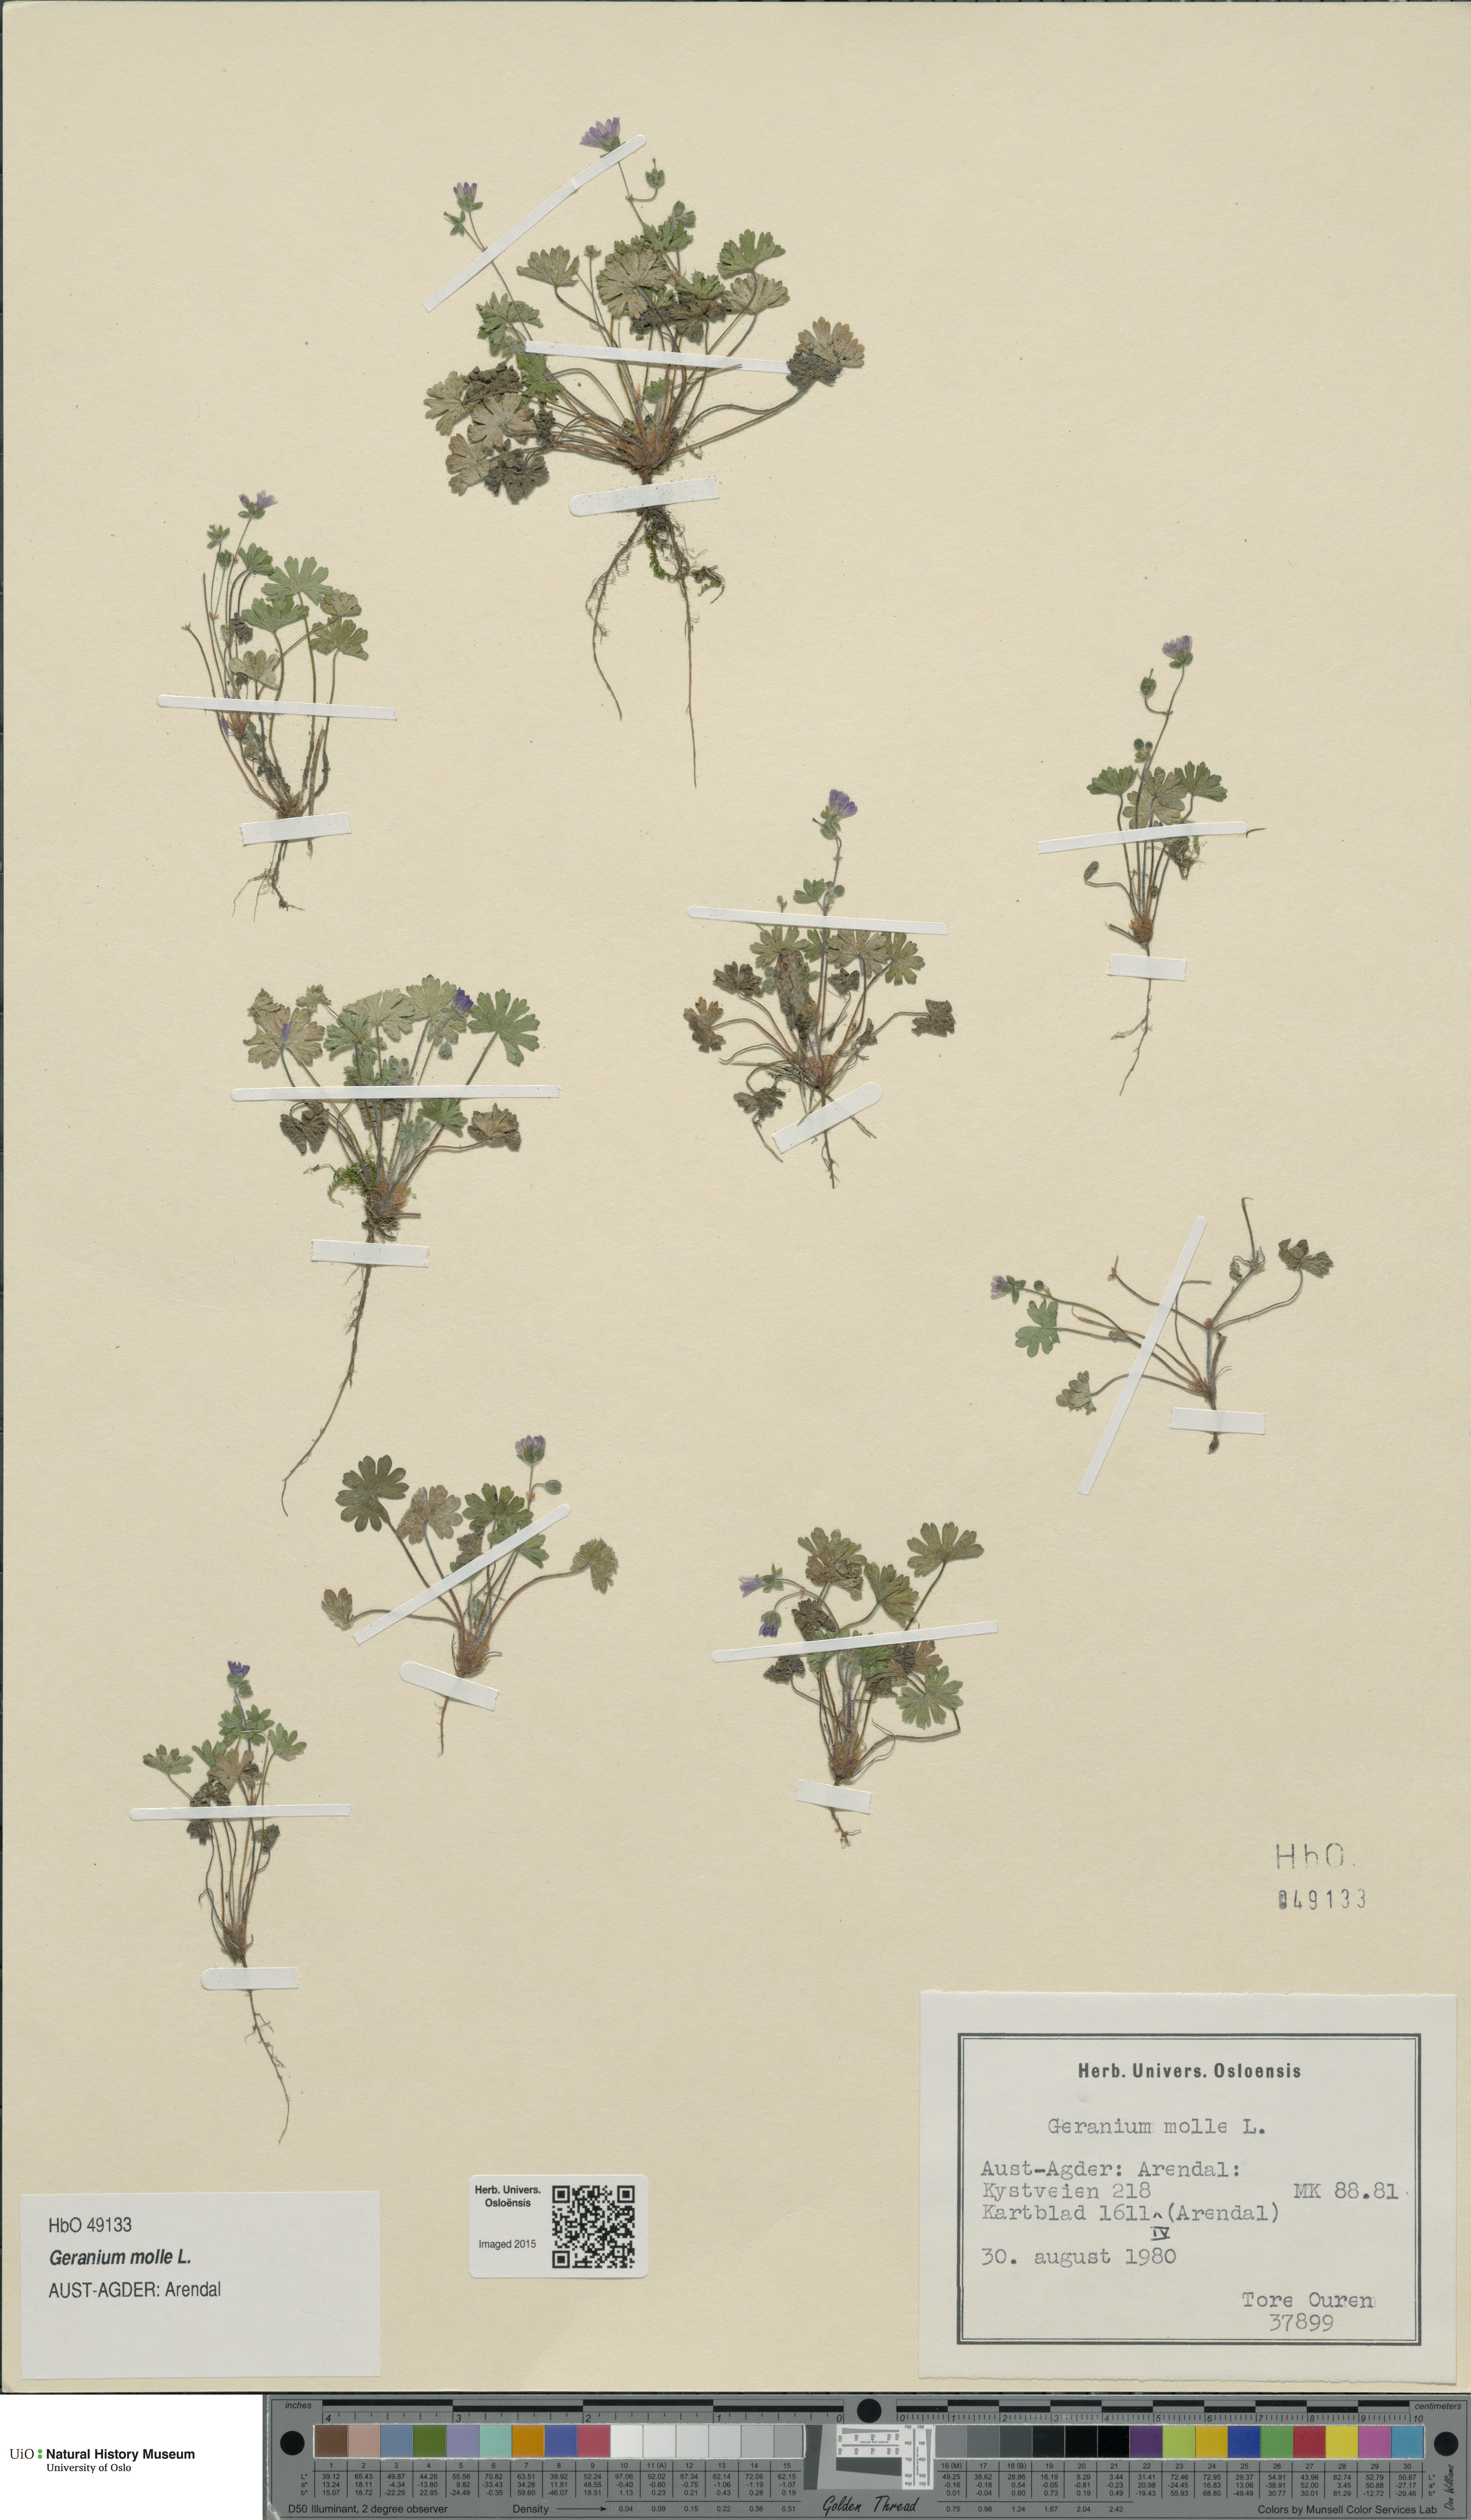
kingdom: Plantae
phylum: Tracheophyta
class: Magnoliopsida
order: Geraniales
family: Geraniaceae
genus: Geranium
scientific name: Geranium molle
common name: Dove's-foot crane's-bill
